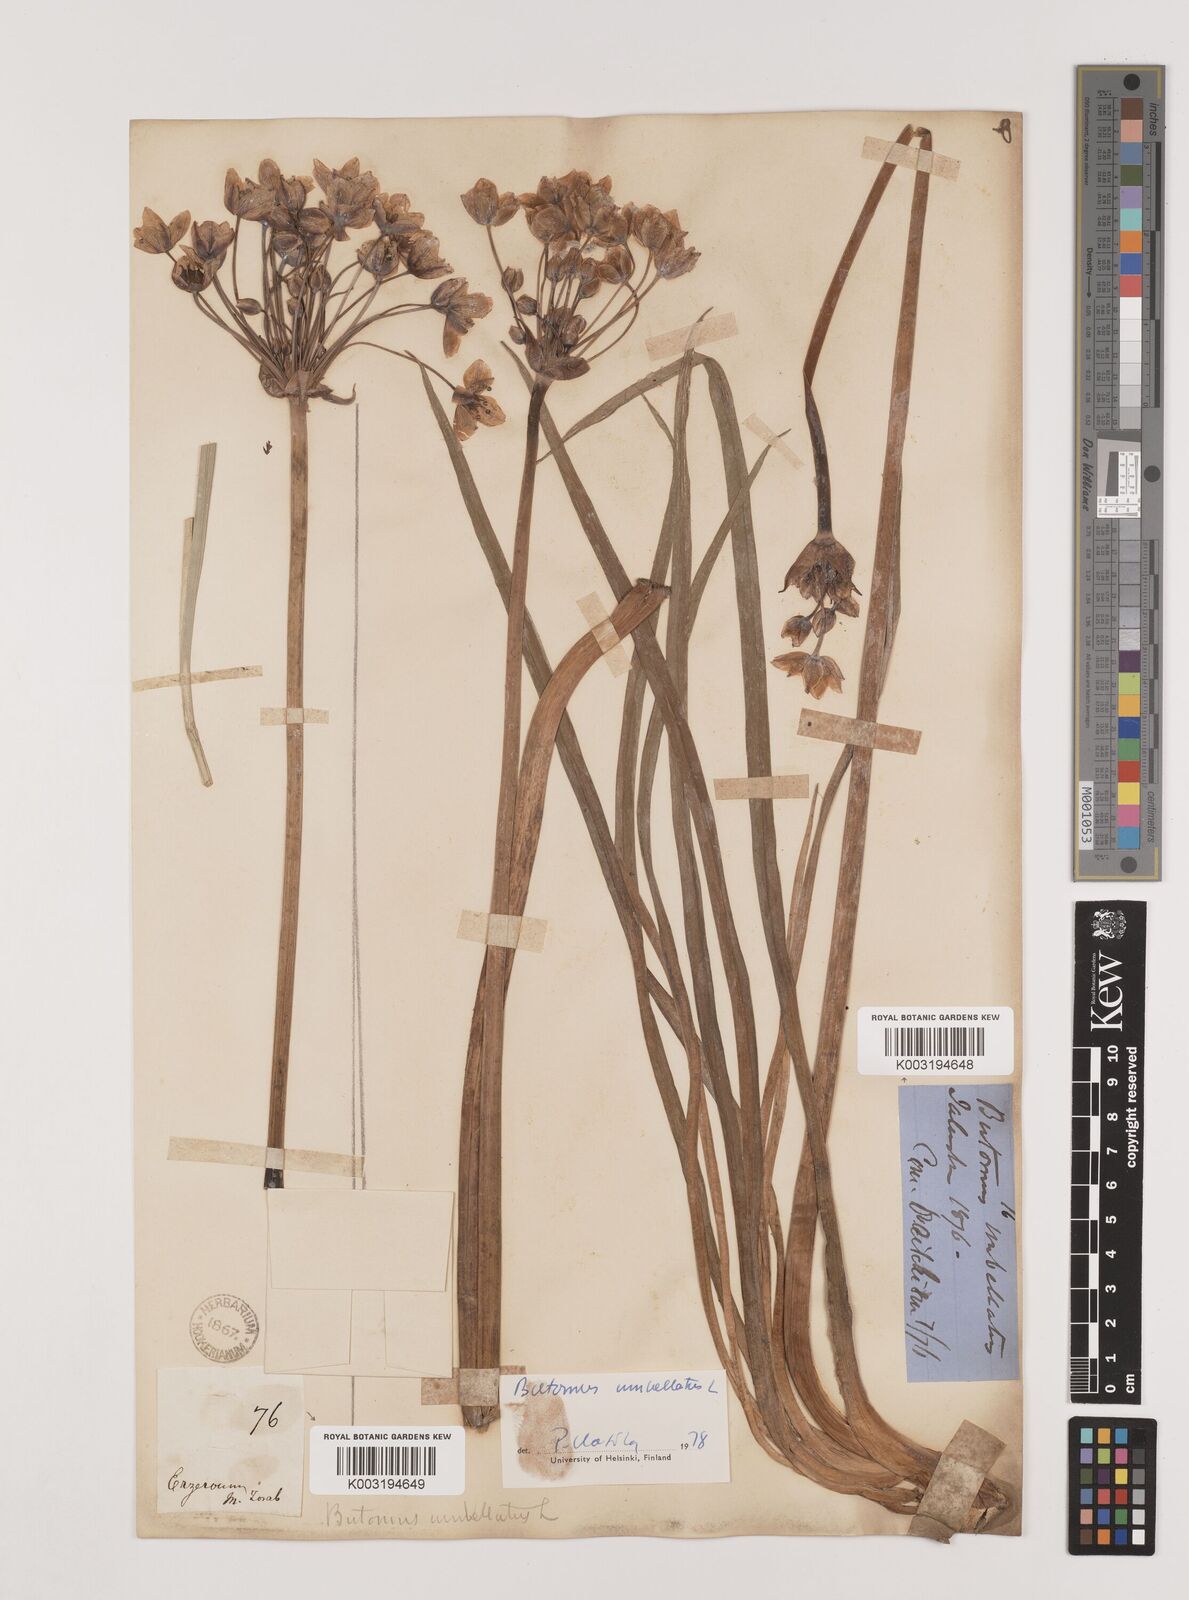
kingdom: Plantae
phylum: Tracheophyta
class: Liliopsida
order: Alismatales
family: Butomaceae
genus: Butomus
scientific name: Butomus
